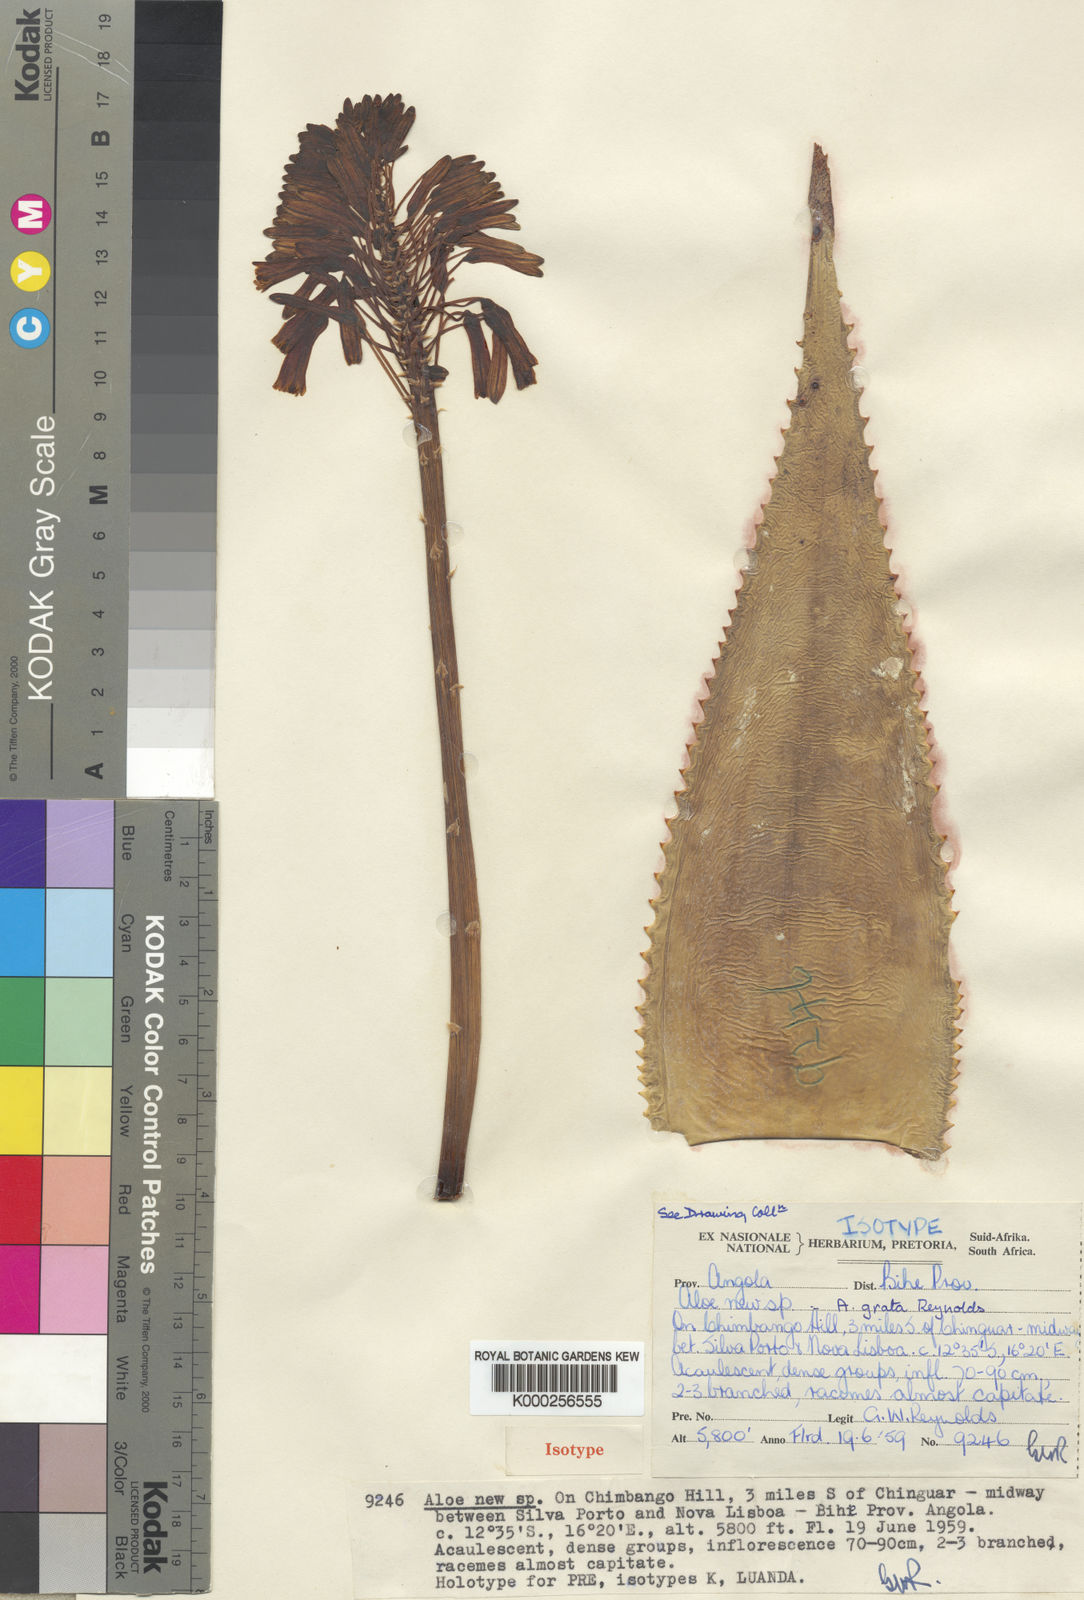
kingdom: Plantae
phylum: Tracheophyta
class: Liliopsida
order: Asparagales
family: Asphodelaceae
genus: Aloe
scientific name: Aloe grata
